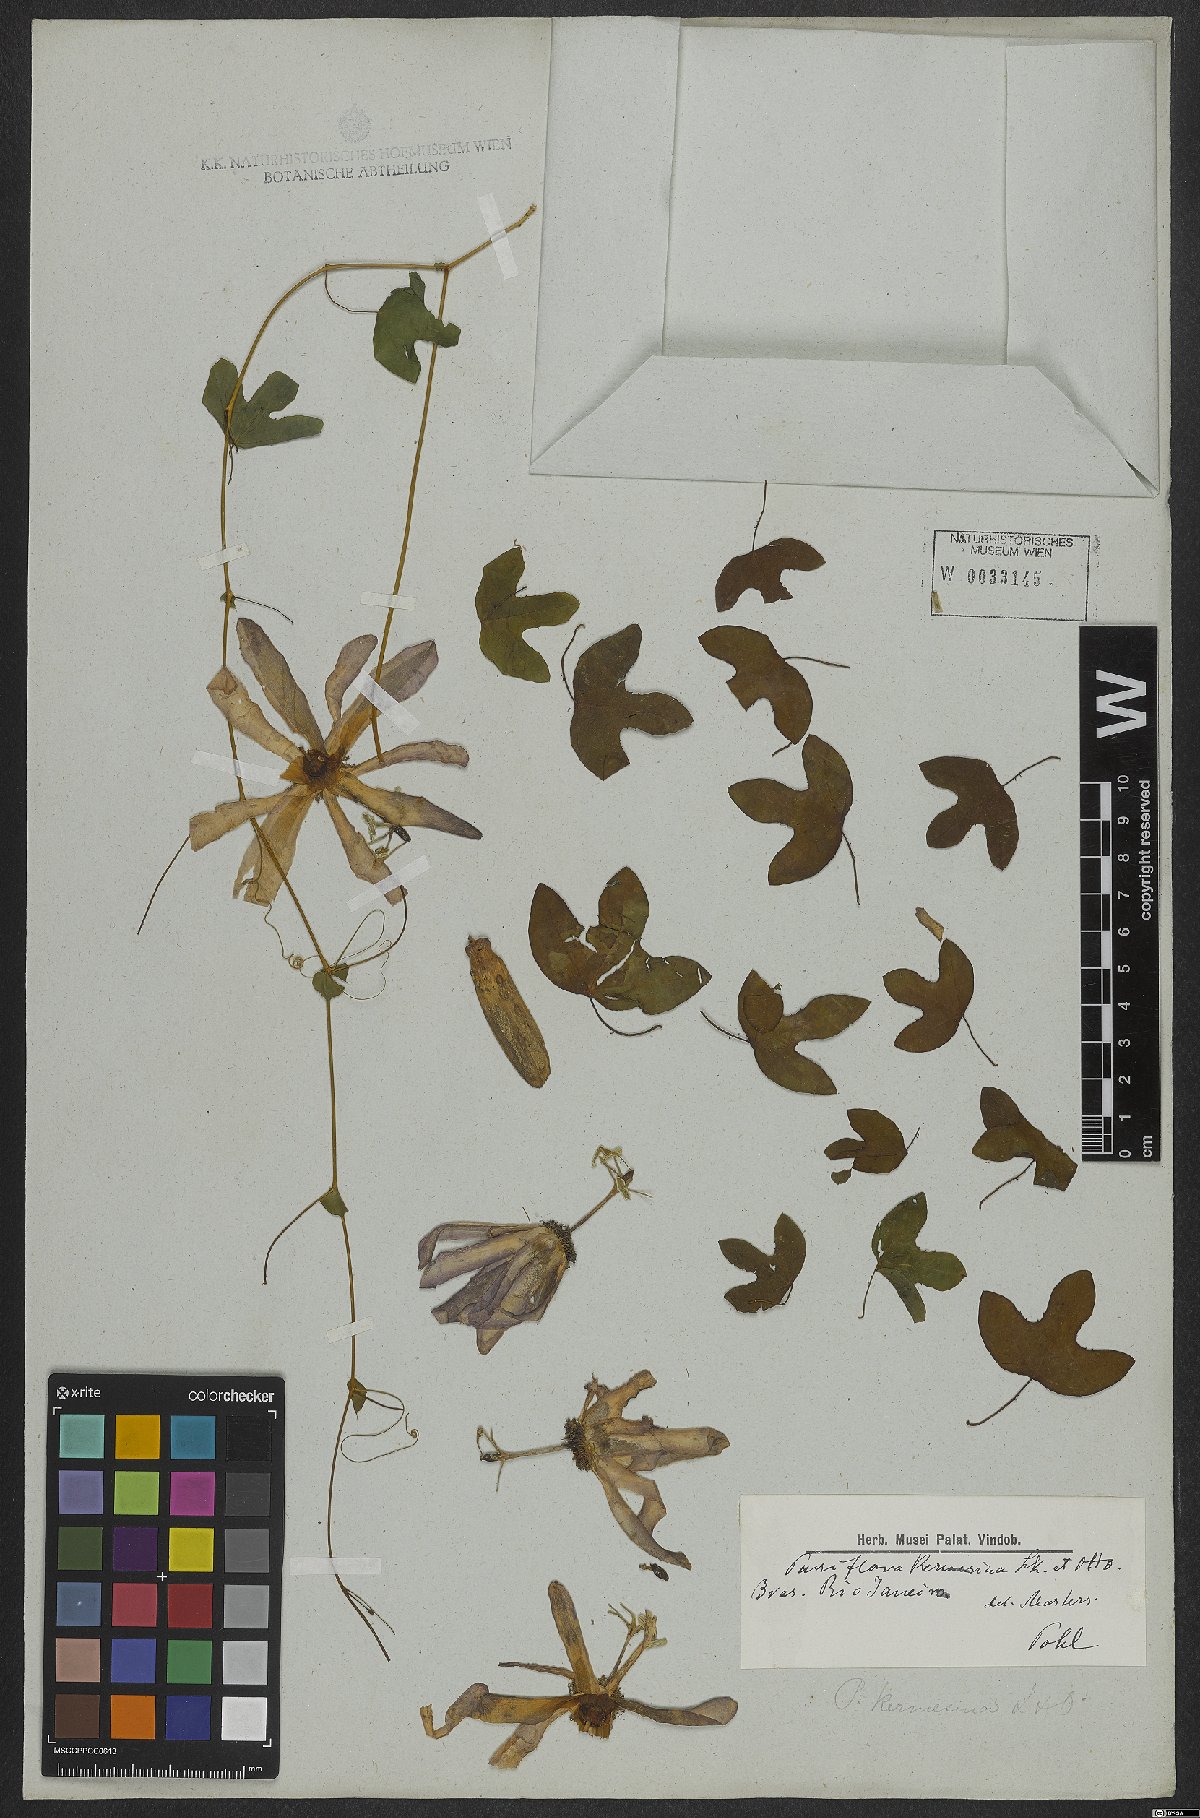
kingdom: Plantae
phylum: Tracheophyta
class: Magnoliopsida
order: Malpighiales
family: Passifloraceae
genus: Passiflora
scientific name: Passiflora kermesina
